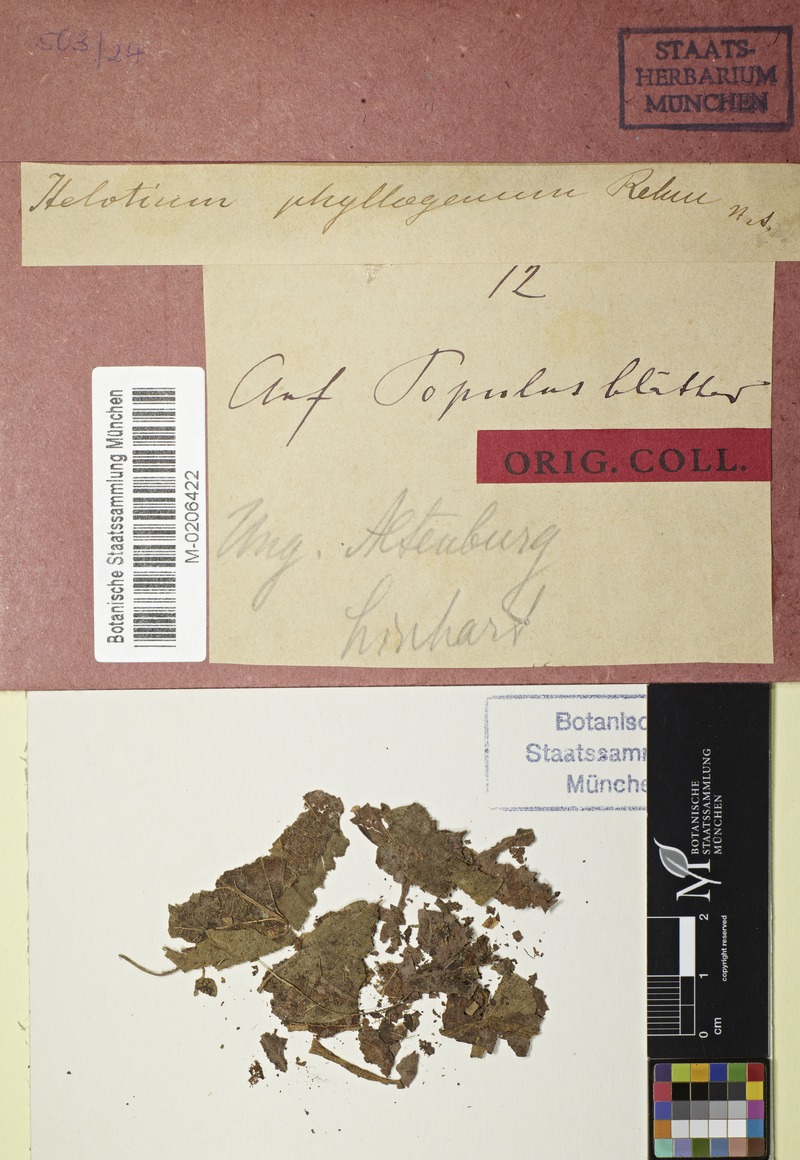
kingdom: Fungi
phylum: Ascomycota
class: Leotiomycetes
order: Helotiales
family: Helotiaceae
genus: Hymenoscyphus
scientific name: Hymenoscyphus phyllogenus
